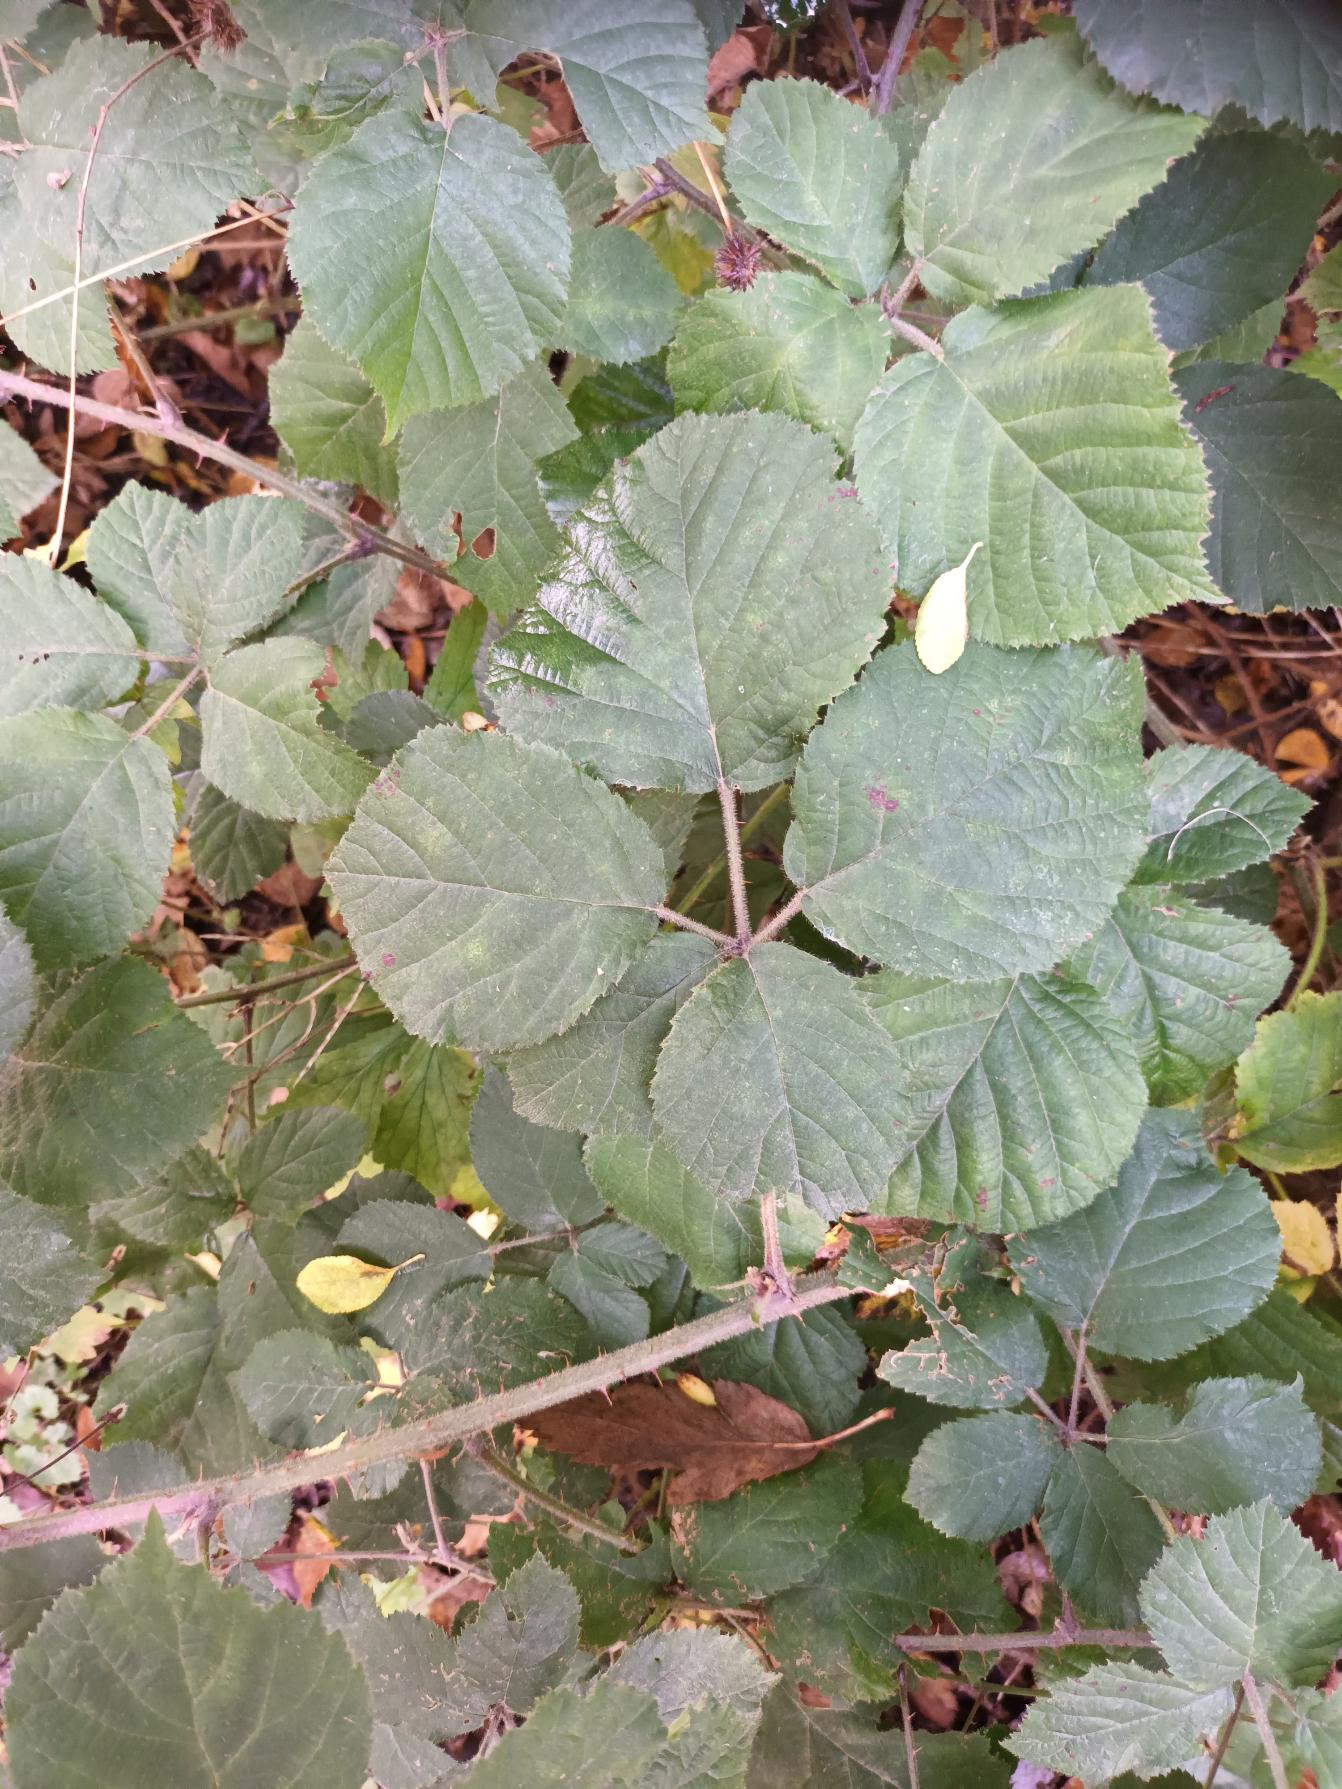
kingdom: Plantae
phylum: Tracheophyta
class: Magnoliopsida
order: Rosales
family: Rosaceae
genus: Rubus
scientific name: Rubus vestitus
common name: Rundbladet brombær
